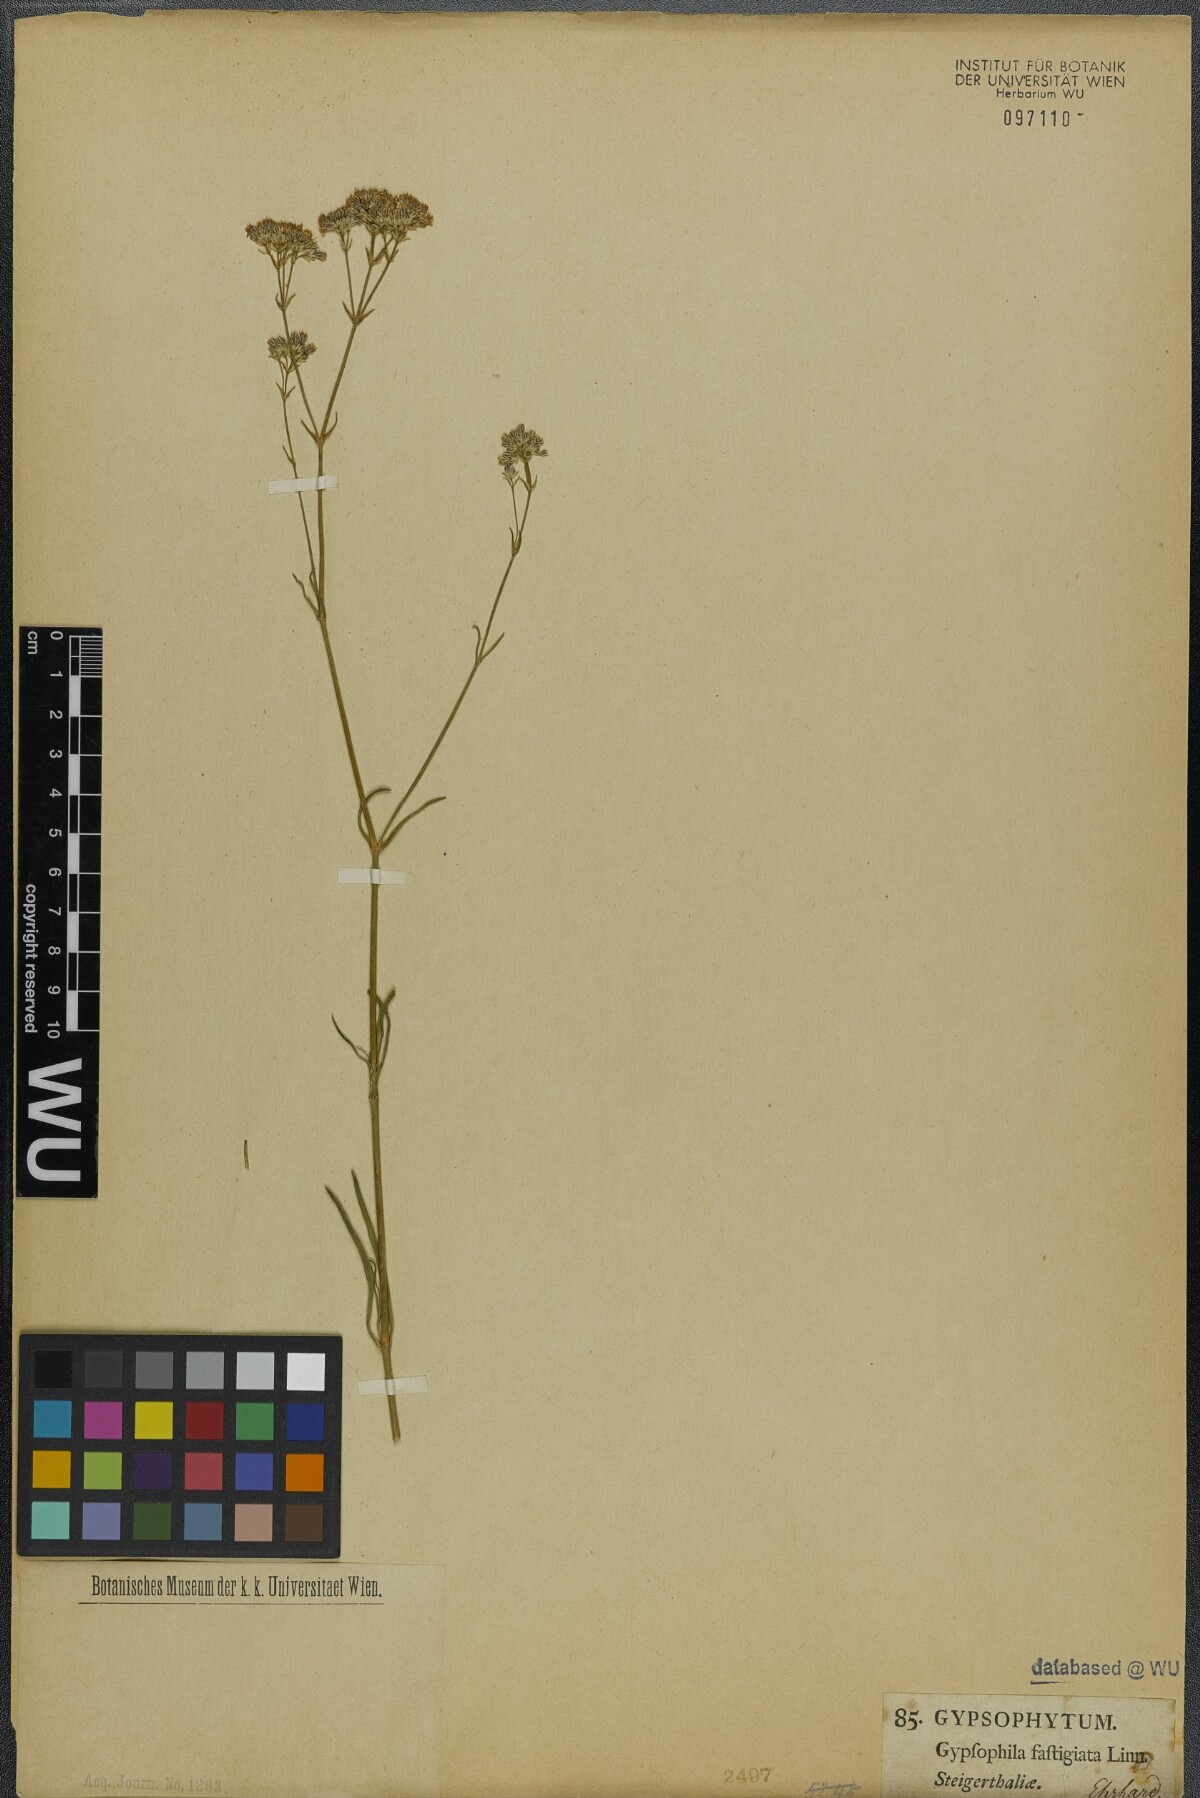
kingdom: Plantae
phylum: Tracheophyta
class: Magnoliopsida
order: Caryophyllales
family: Caryophyllaceae
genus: Gypsophila
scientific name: Gypsophila fastigiata
